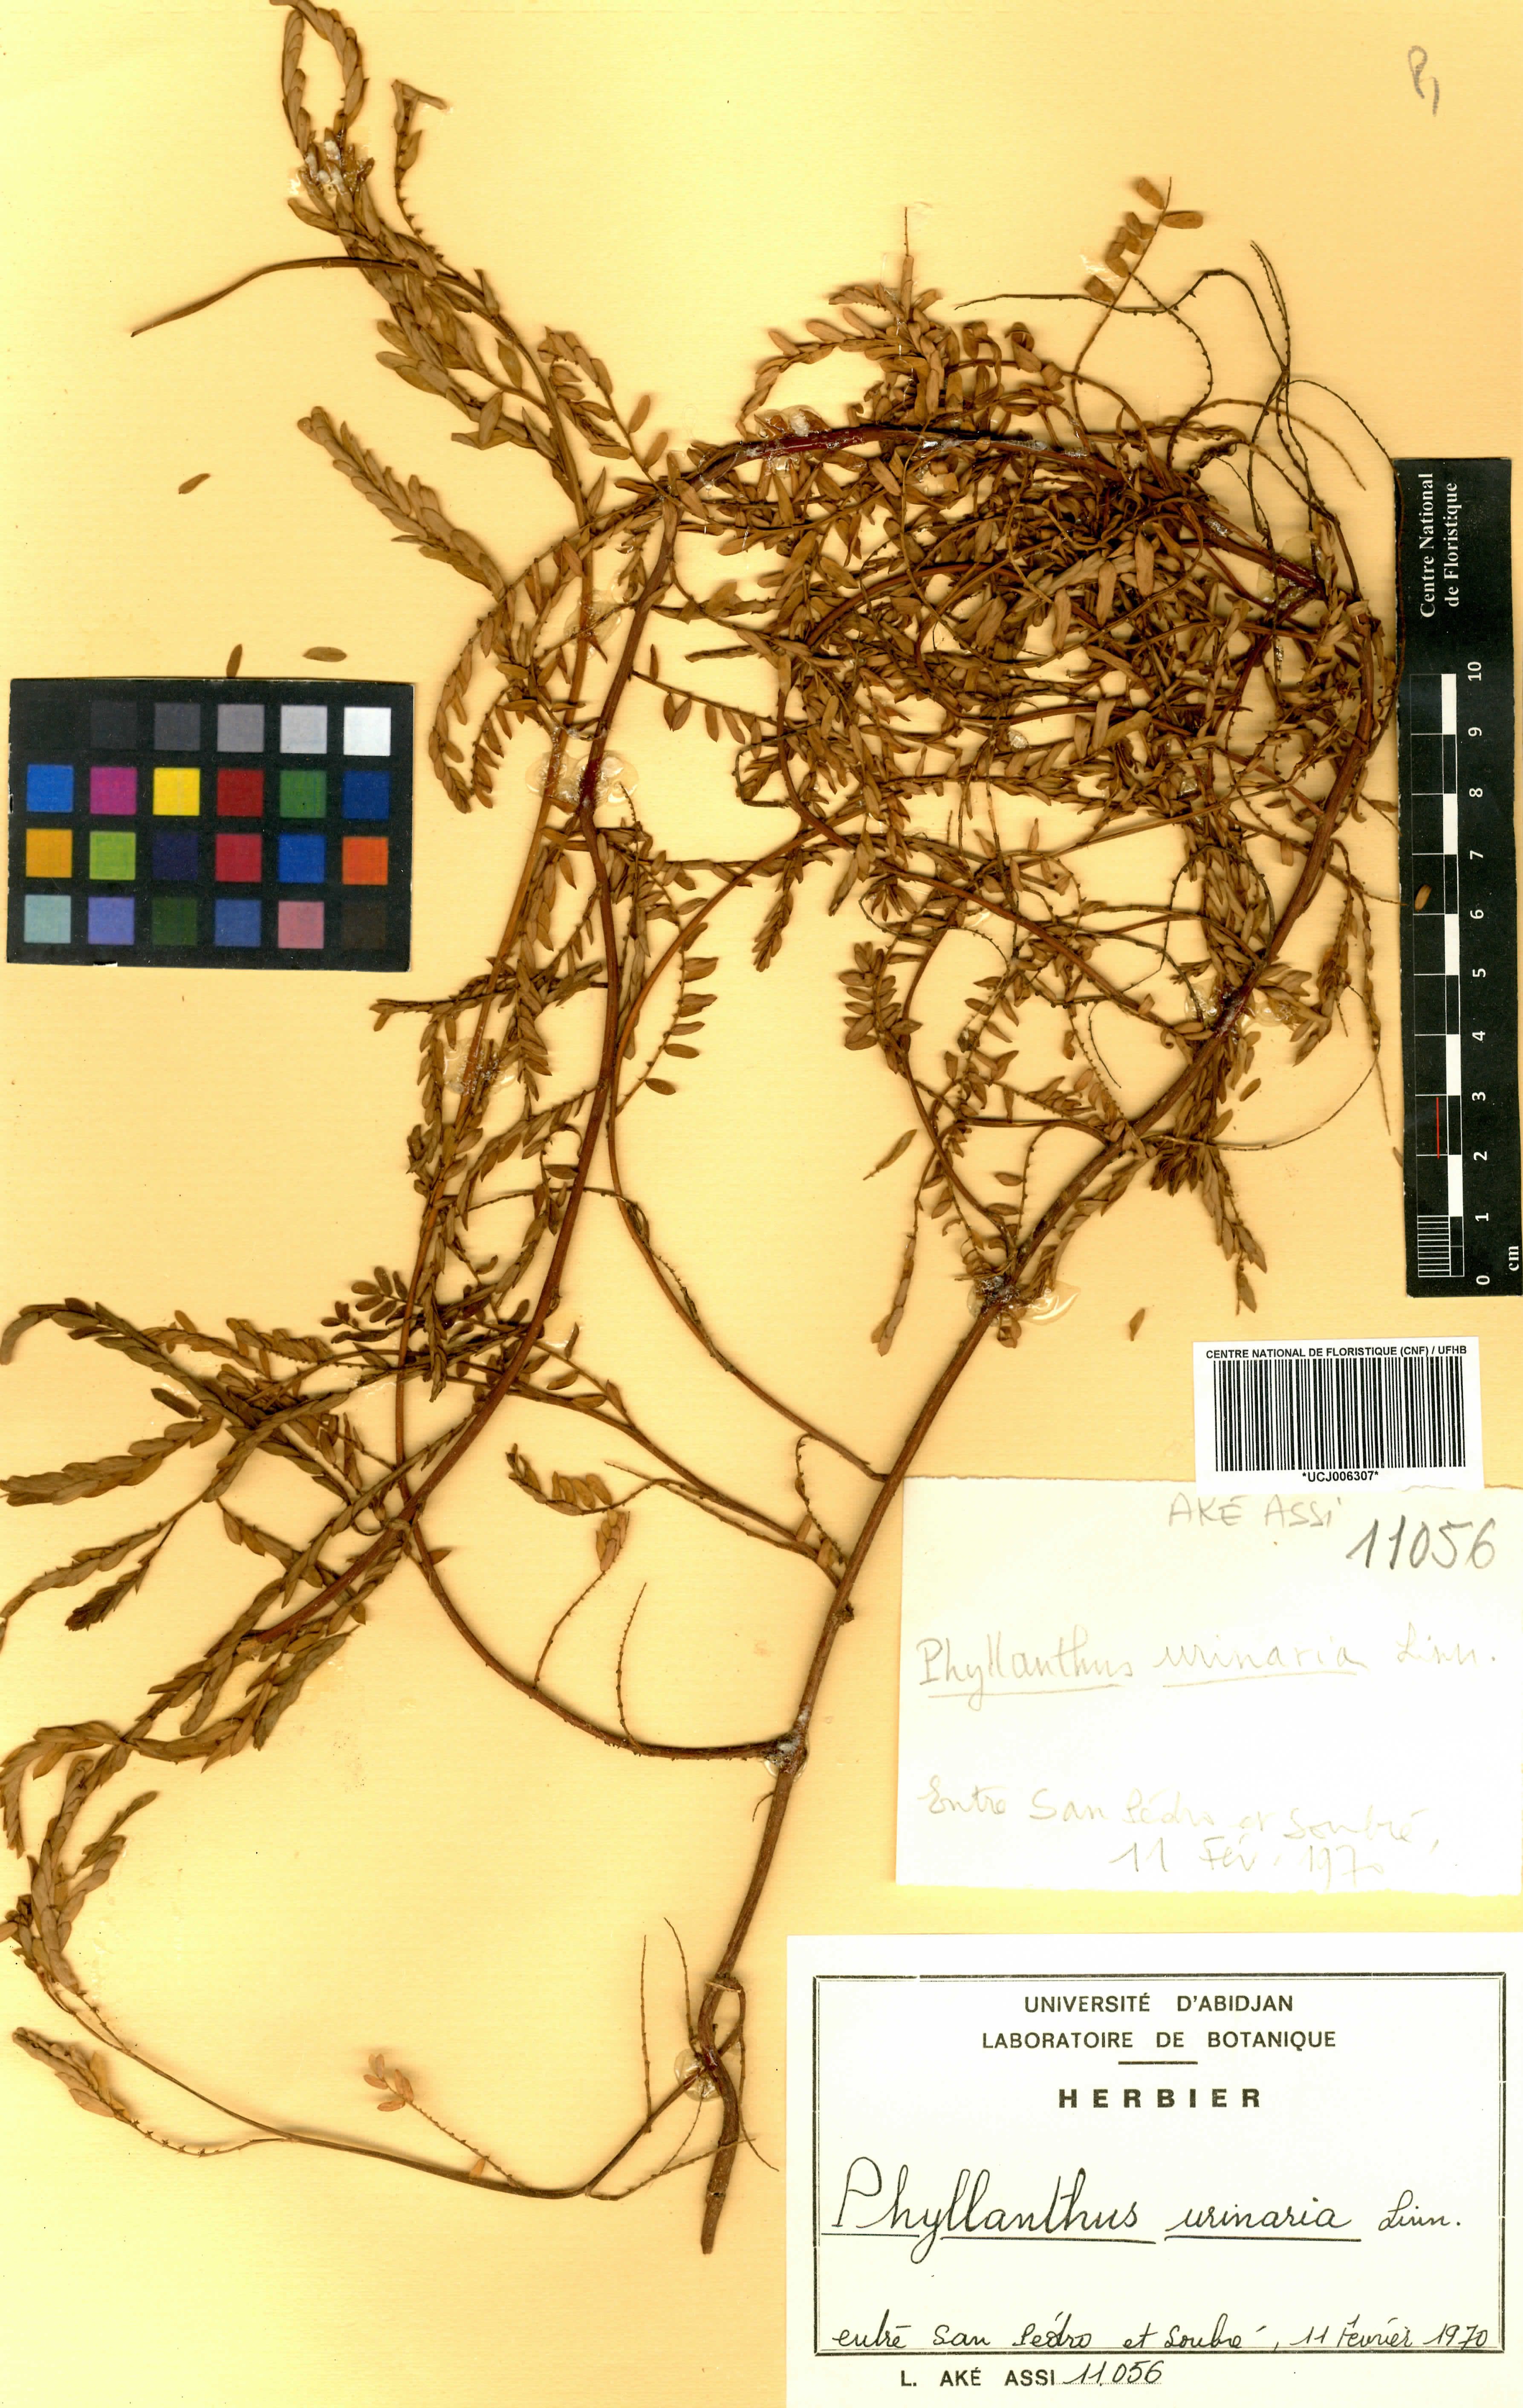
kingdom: Plantae
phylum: Tracheophyta
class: Magnoliopsida
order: Malpighiales
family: Phyllanthaceae
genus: Phyllanthus
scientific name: Phyllanthus urinaria
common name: Chamber bitter
